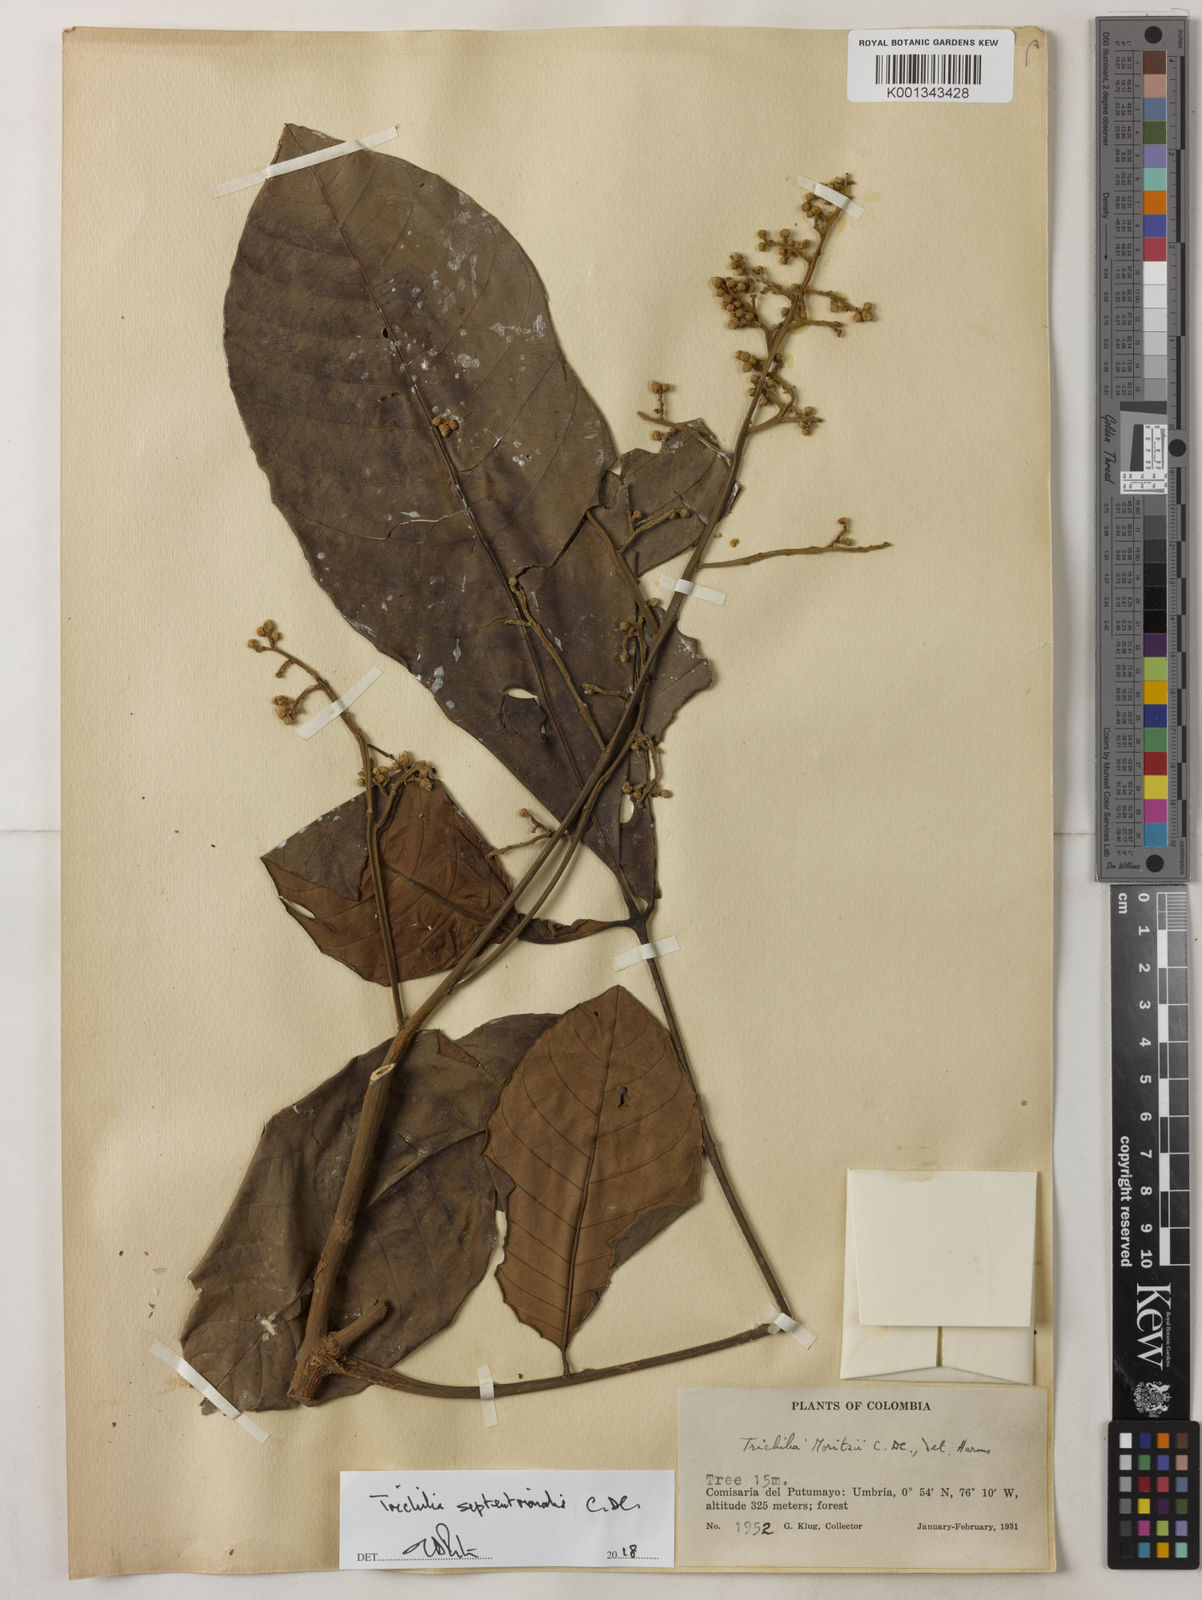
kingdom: Plantae
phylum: Tracheophyta
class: Magnoliopsida
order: Sapindales
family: Meliaceae
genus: Trichilia
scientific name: Trichilia septentrionalis
